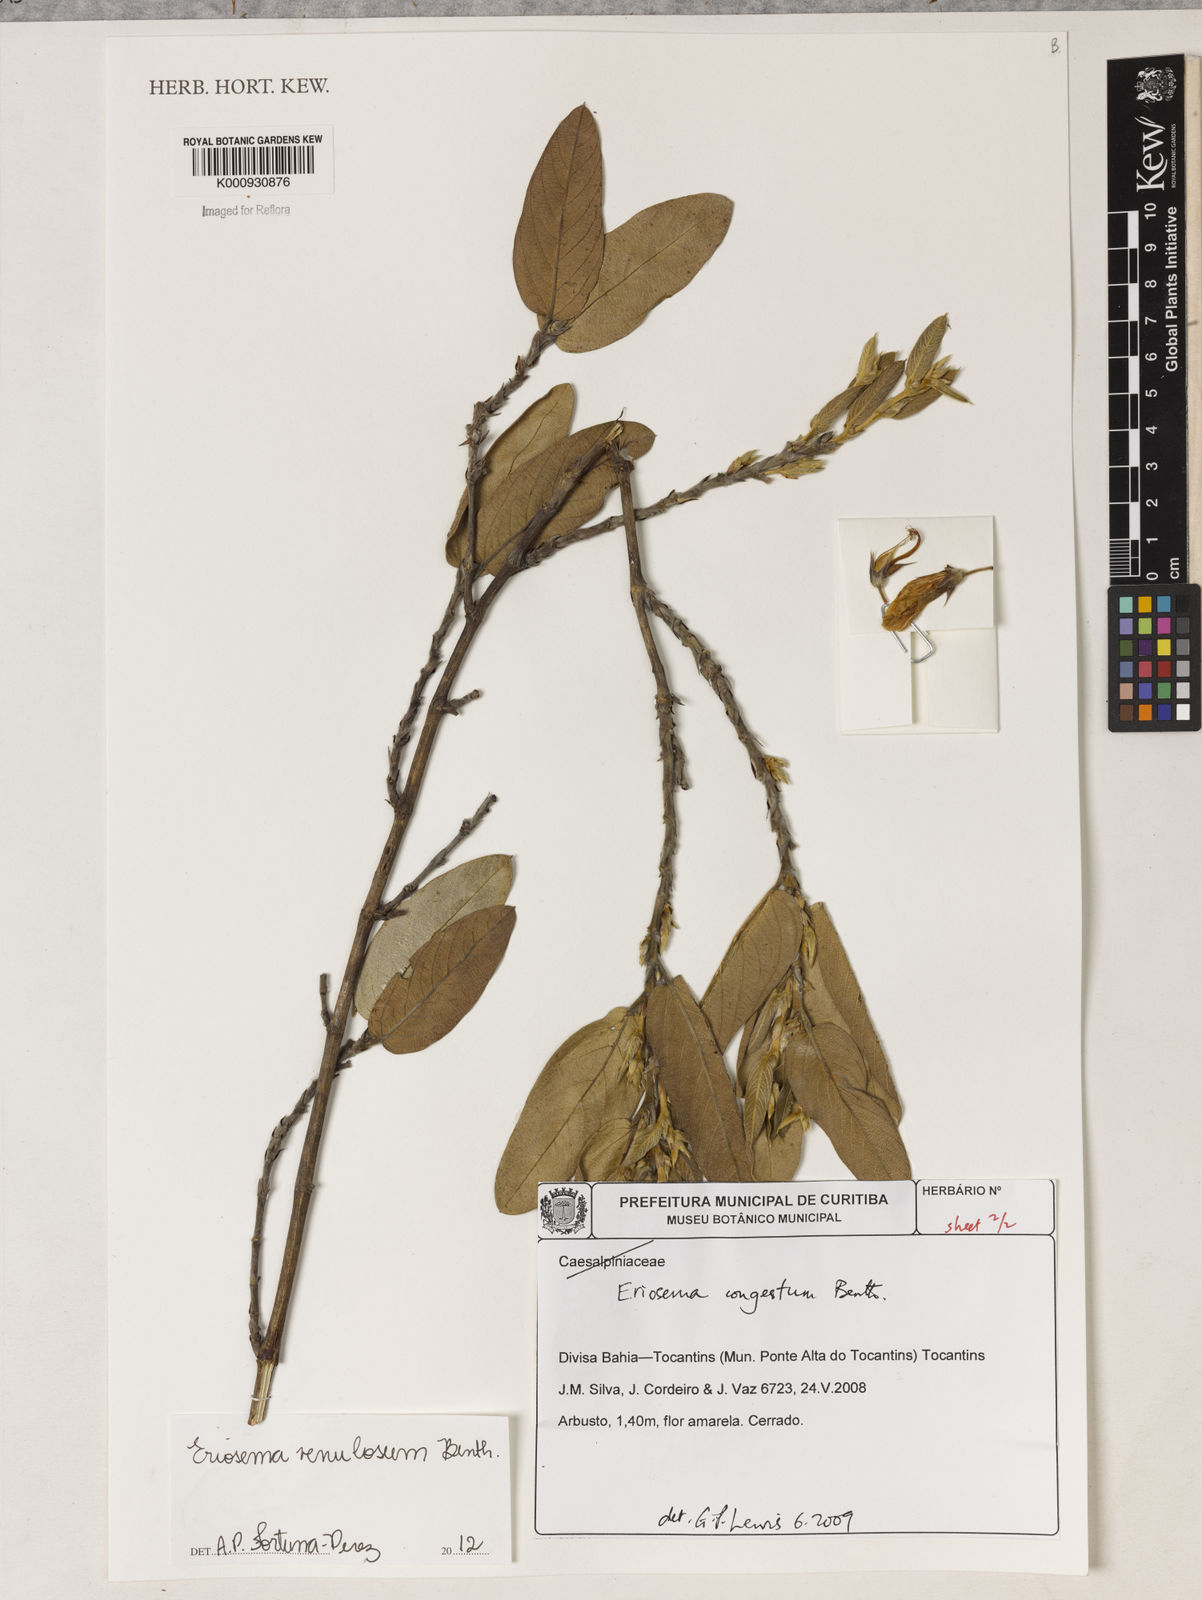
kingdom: Plantae
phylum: Tracheophyta
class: Magnoliopsida
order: Fabales
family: Fabaceae
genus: Eriosema
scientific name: Eriosema venulosum
